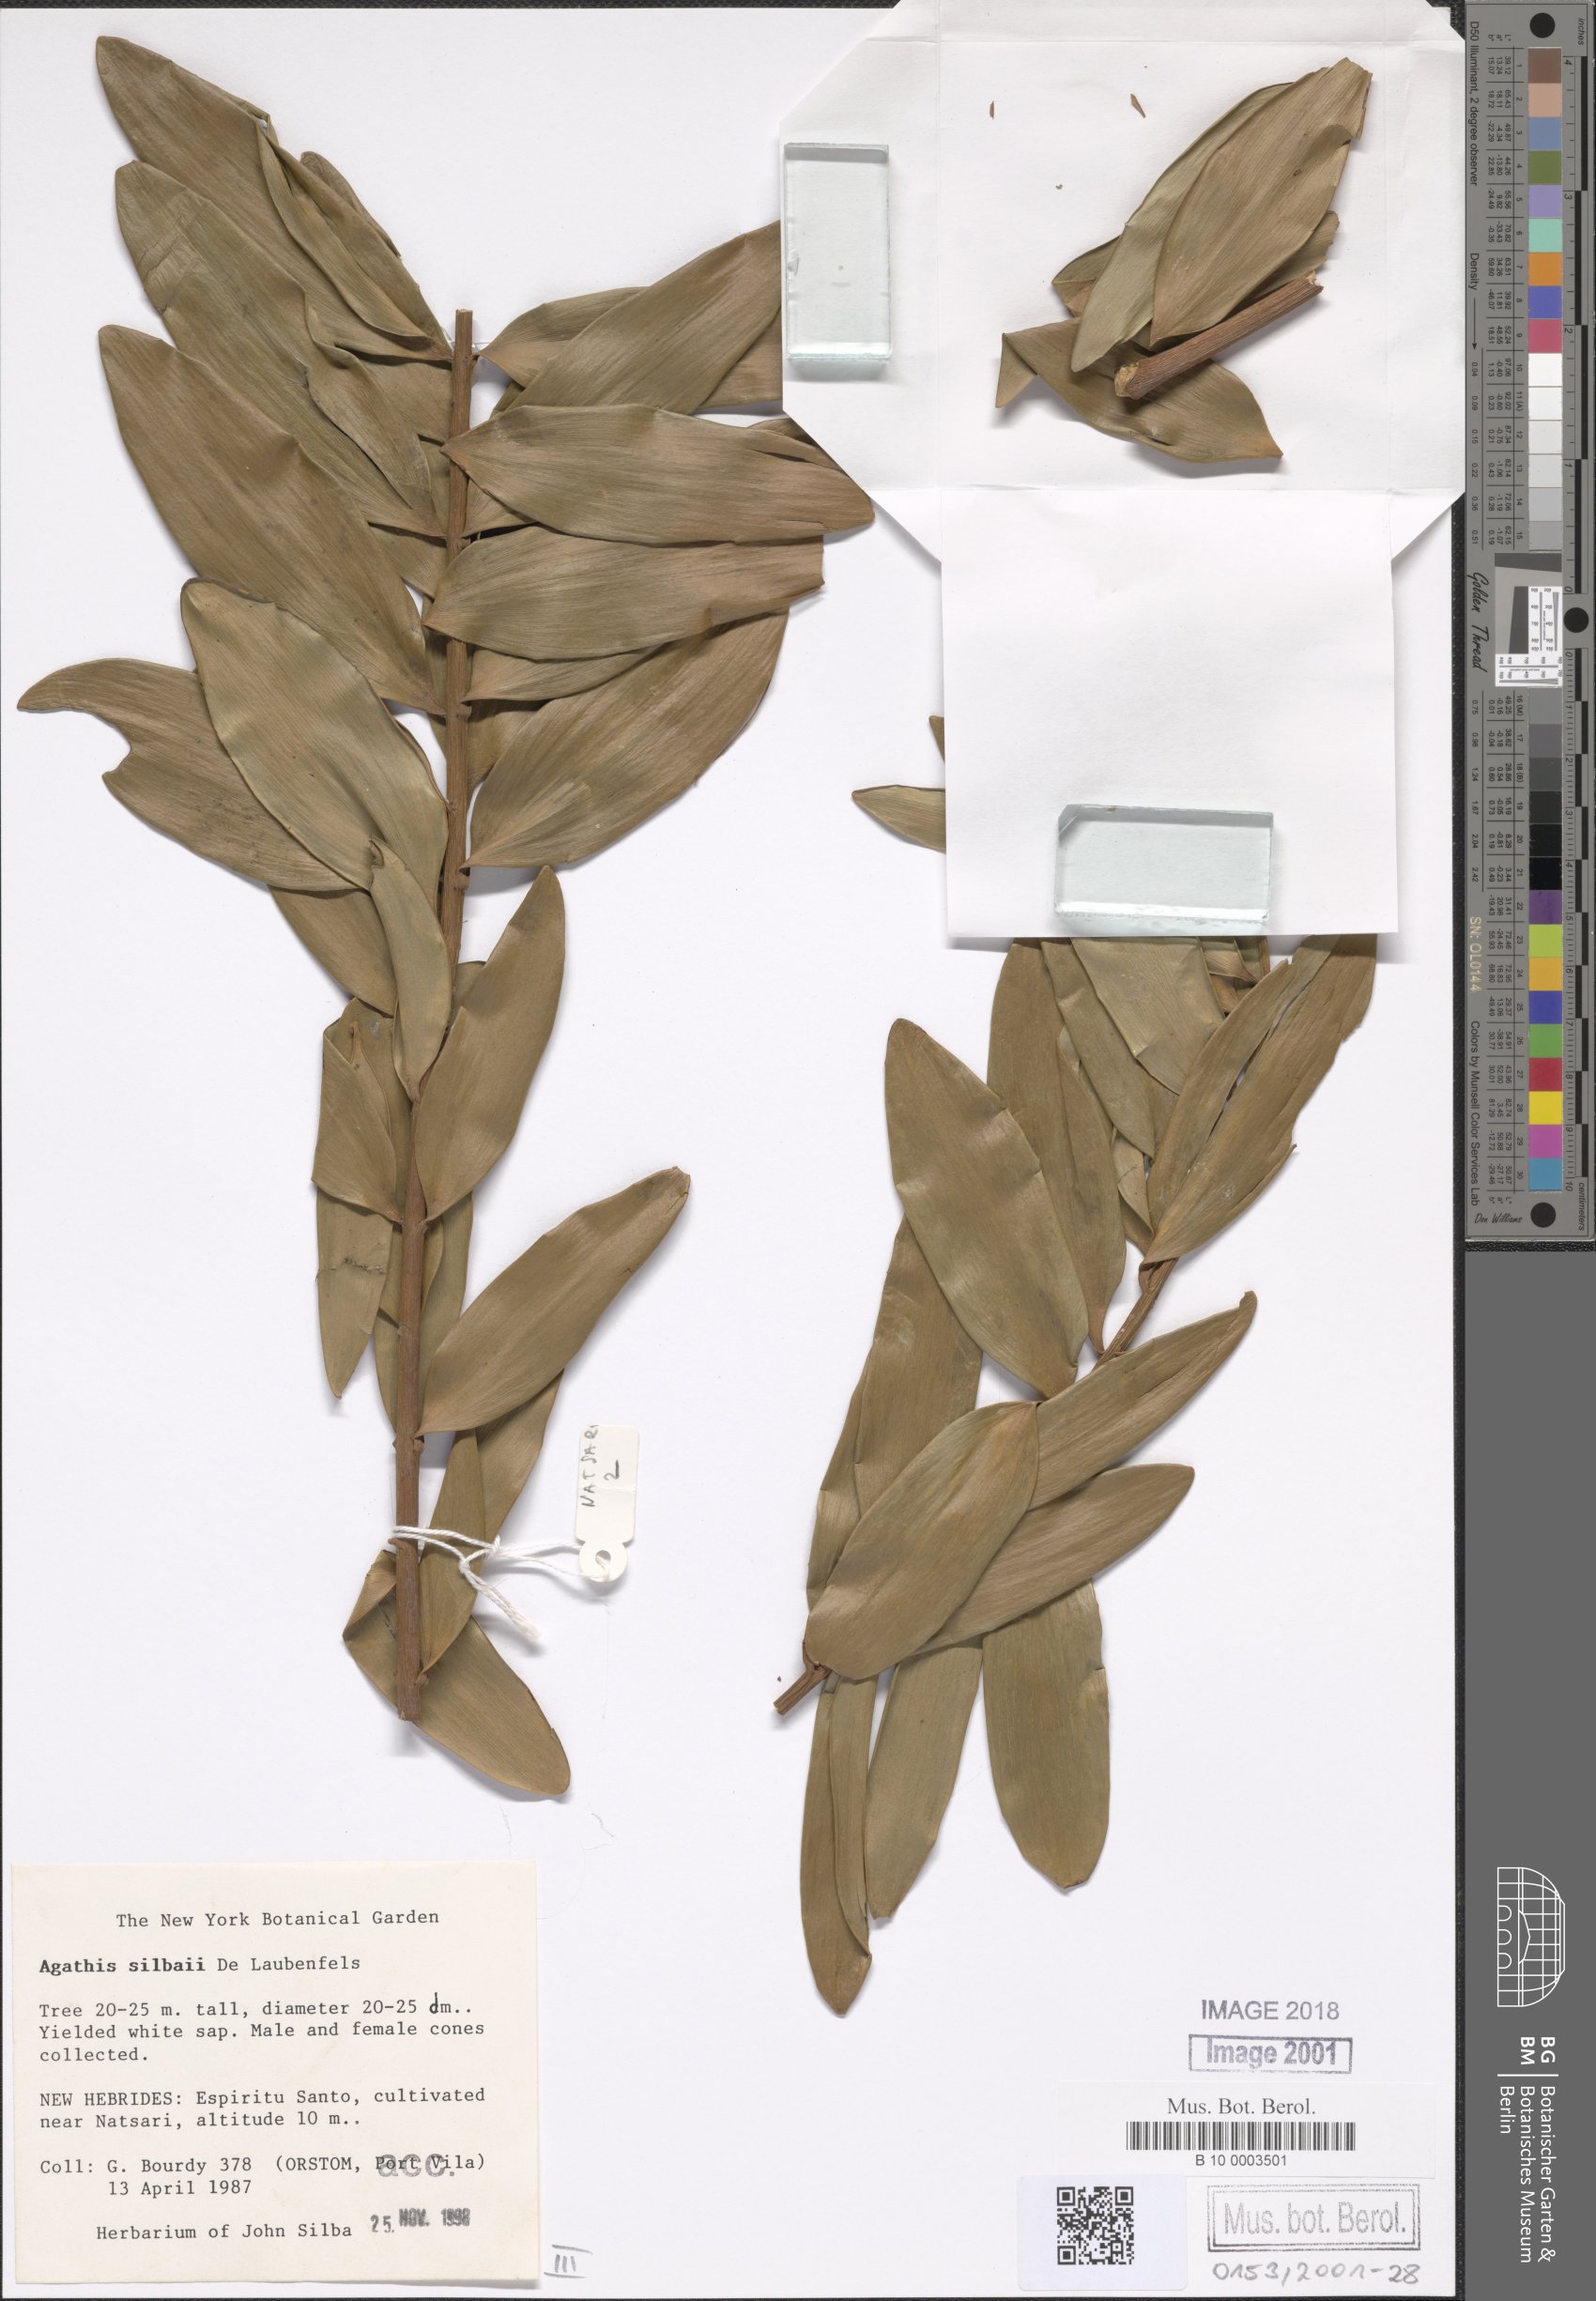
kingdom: Plantae
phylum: Tracheophyta
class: Pinopsida
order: Pinales
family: Araucariaceae
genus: Agathis
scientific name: Agathis silbae
